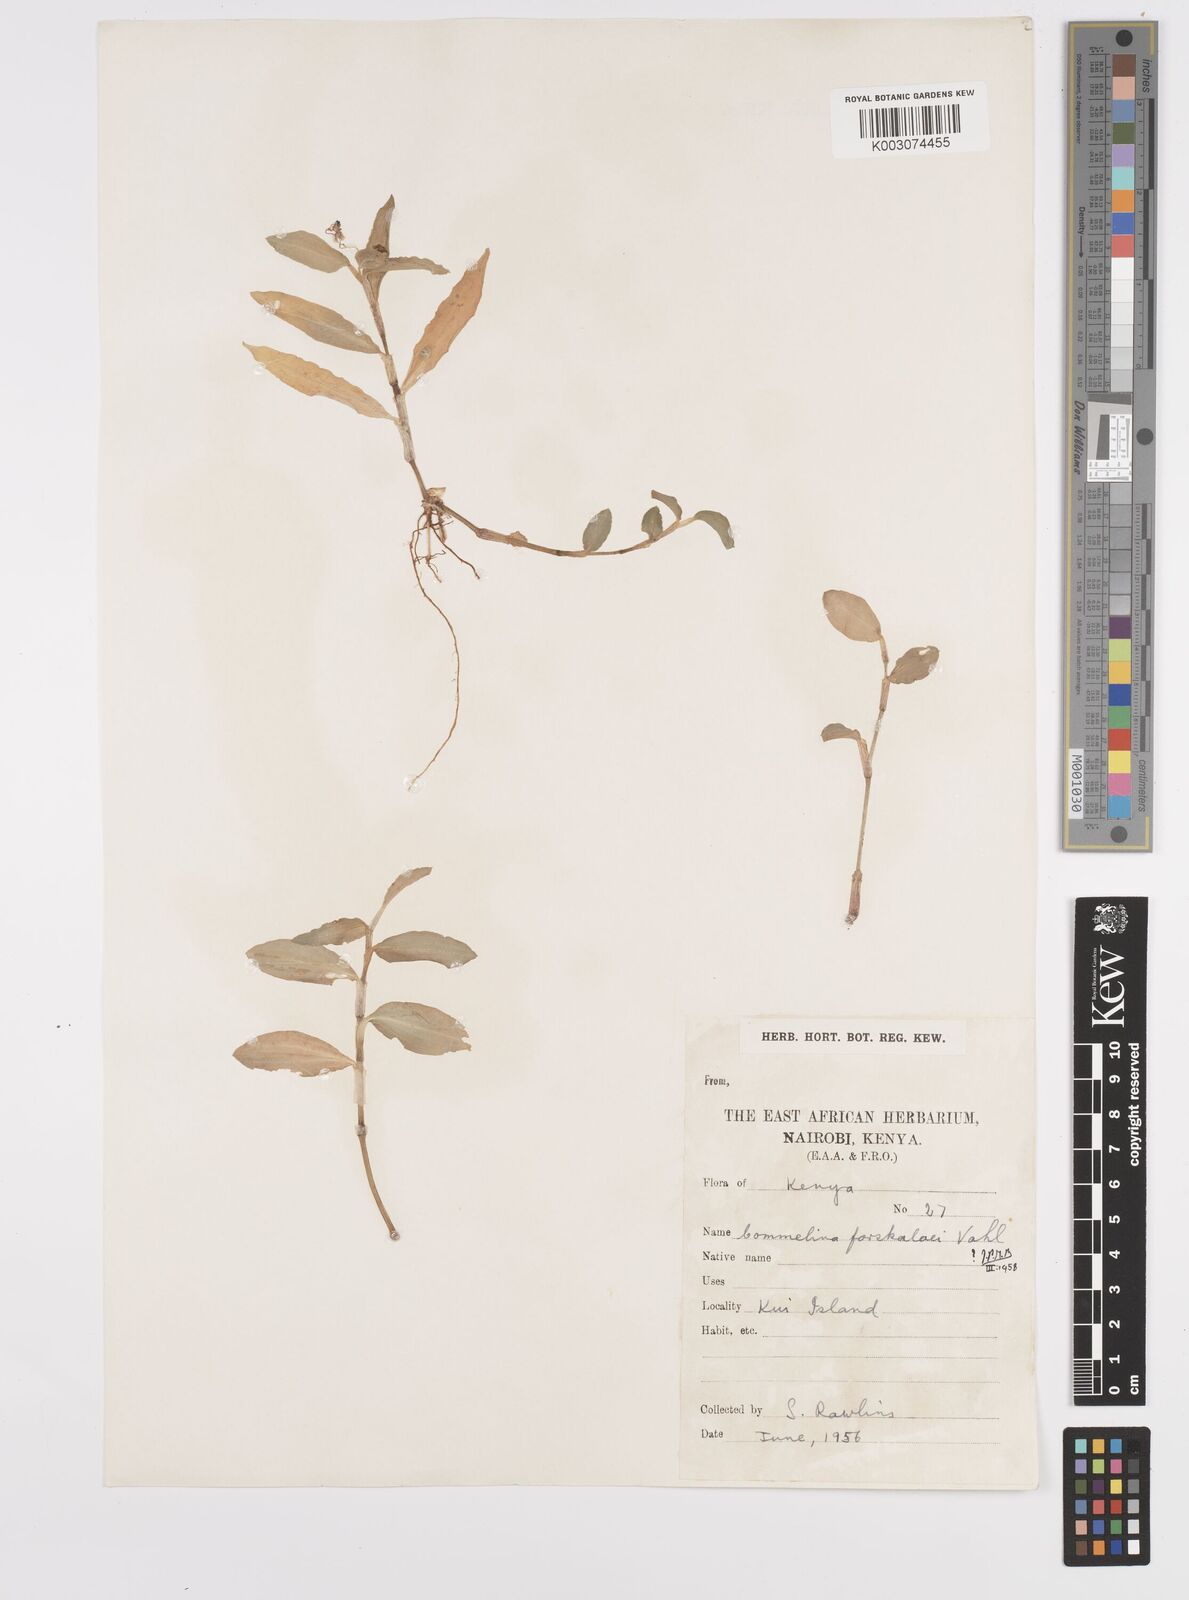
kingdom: Plantae
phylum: Tracheophyta
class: Liliopsida
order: Commelinales
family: Commelinaceae
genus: Commelina
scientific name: Commelina
